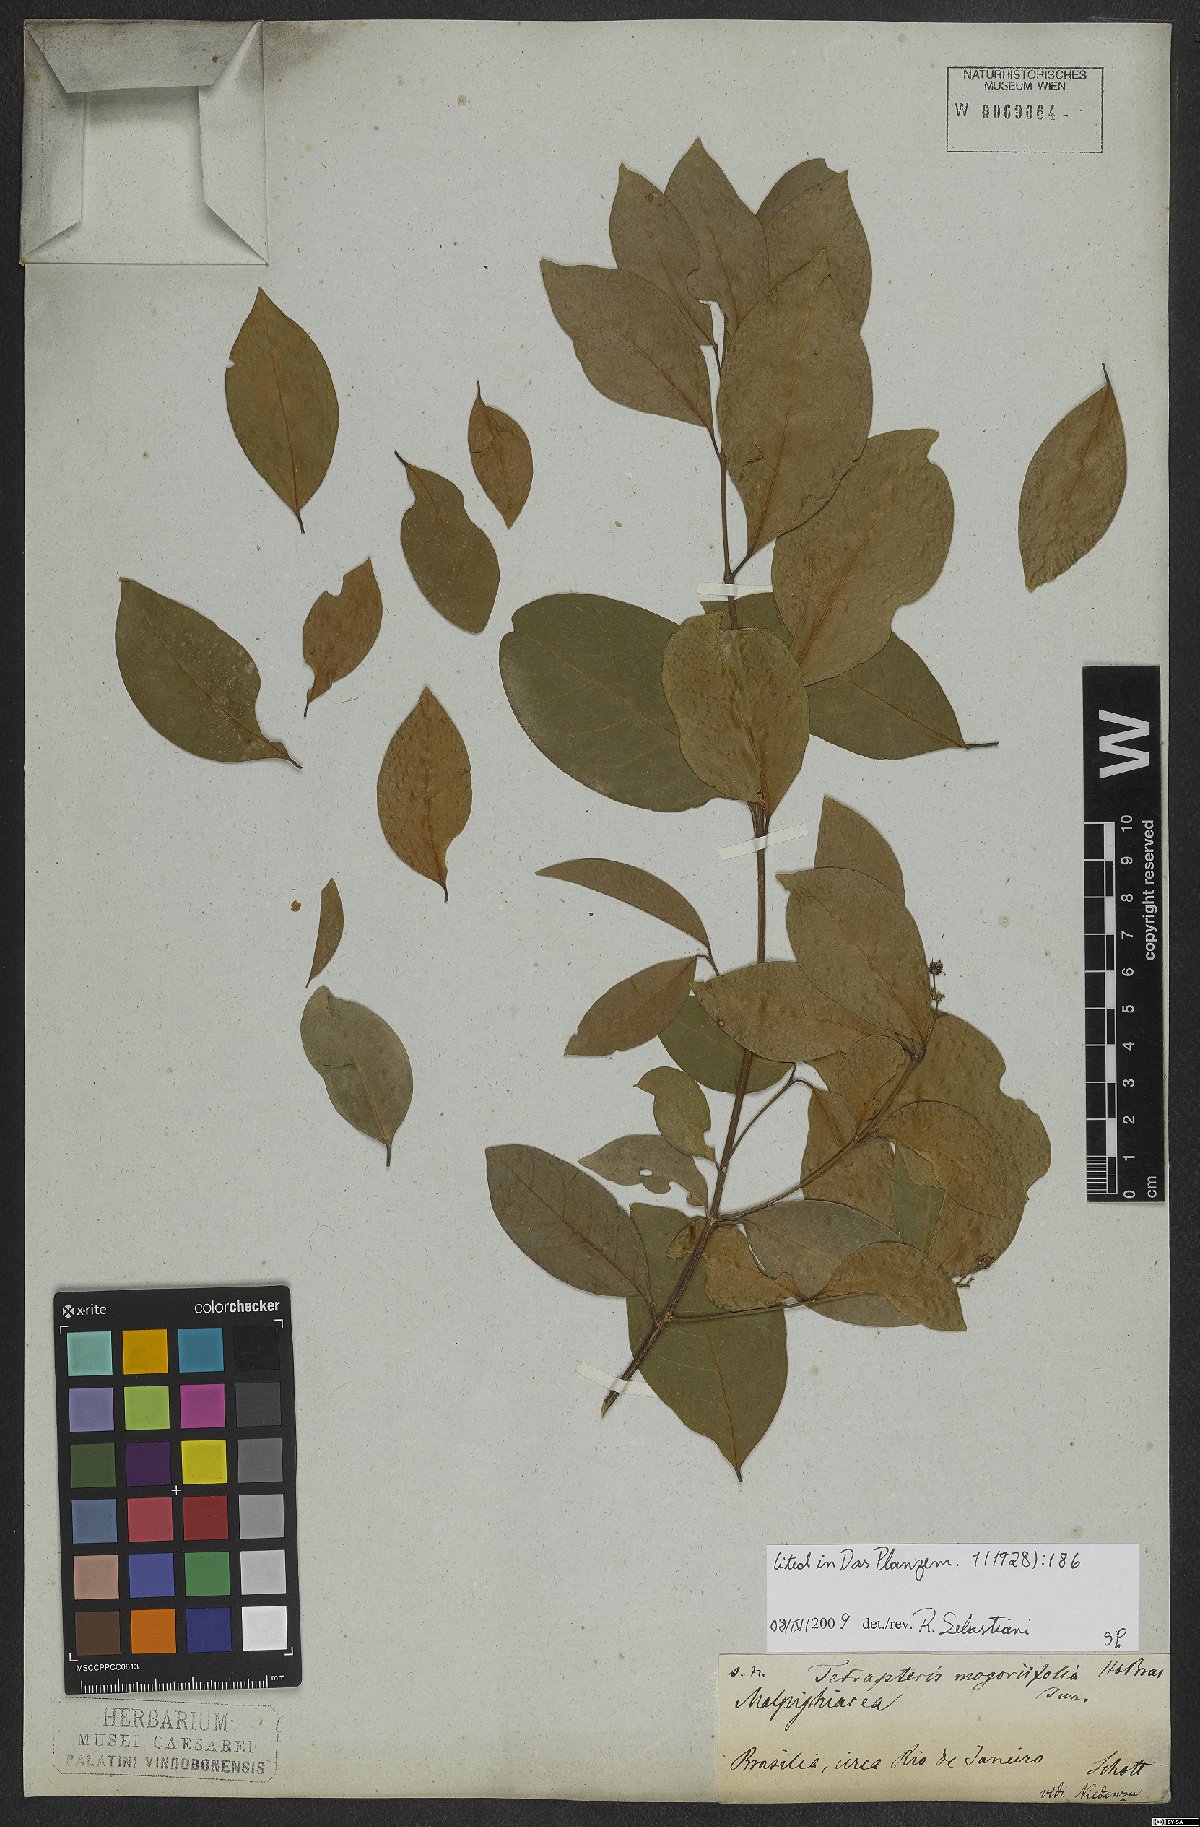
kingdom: Plantae
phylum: Tracheophyta
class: Magnoliopsida
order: Malpighiales
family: Malpighiaceae
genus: Niedenzuella
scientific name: Niedenzuella mogoriifolia
